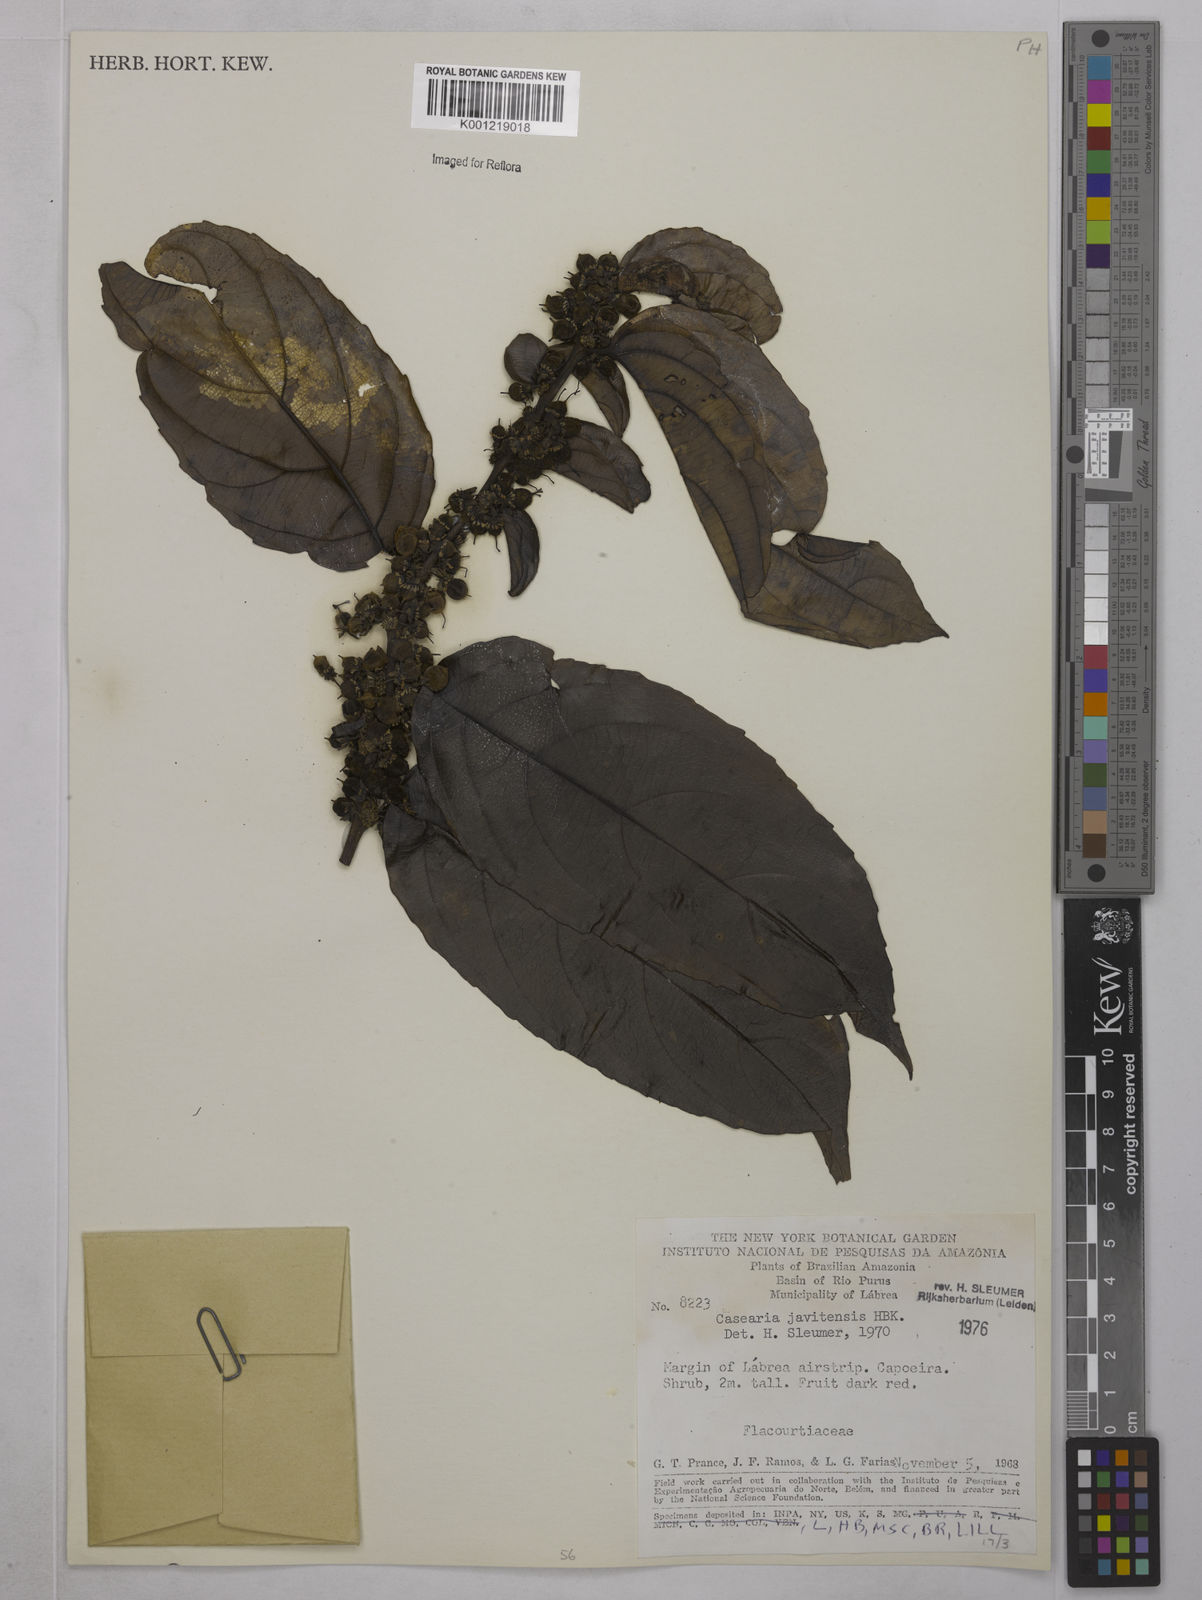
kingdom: Plantae
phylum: Tracheophyta
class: Magnoliopsida
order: Malpighiales
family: Salicaceae
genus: Piparea
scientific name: Piparea multiflora
